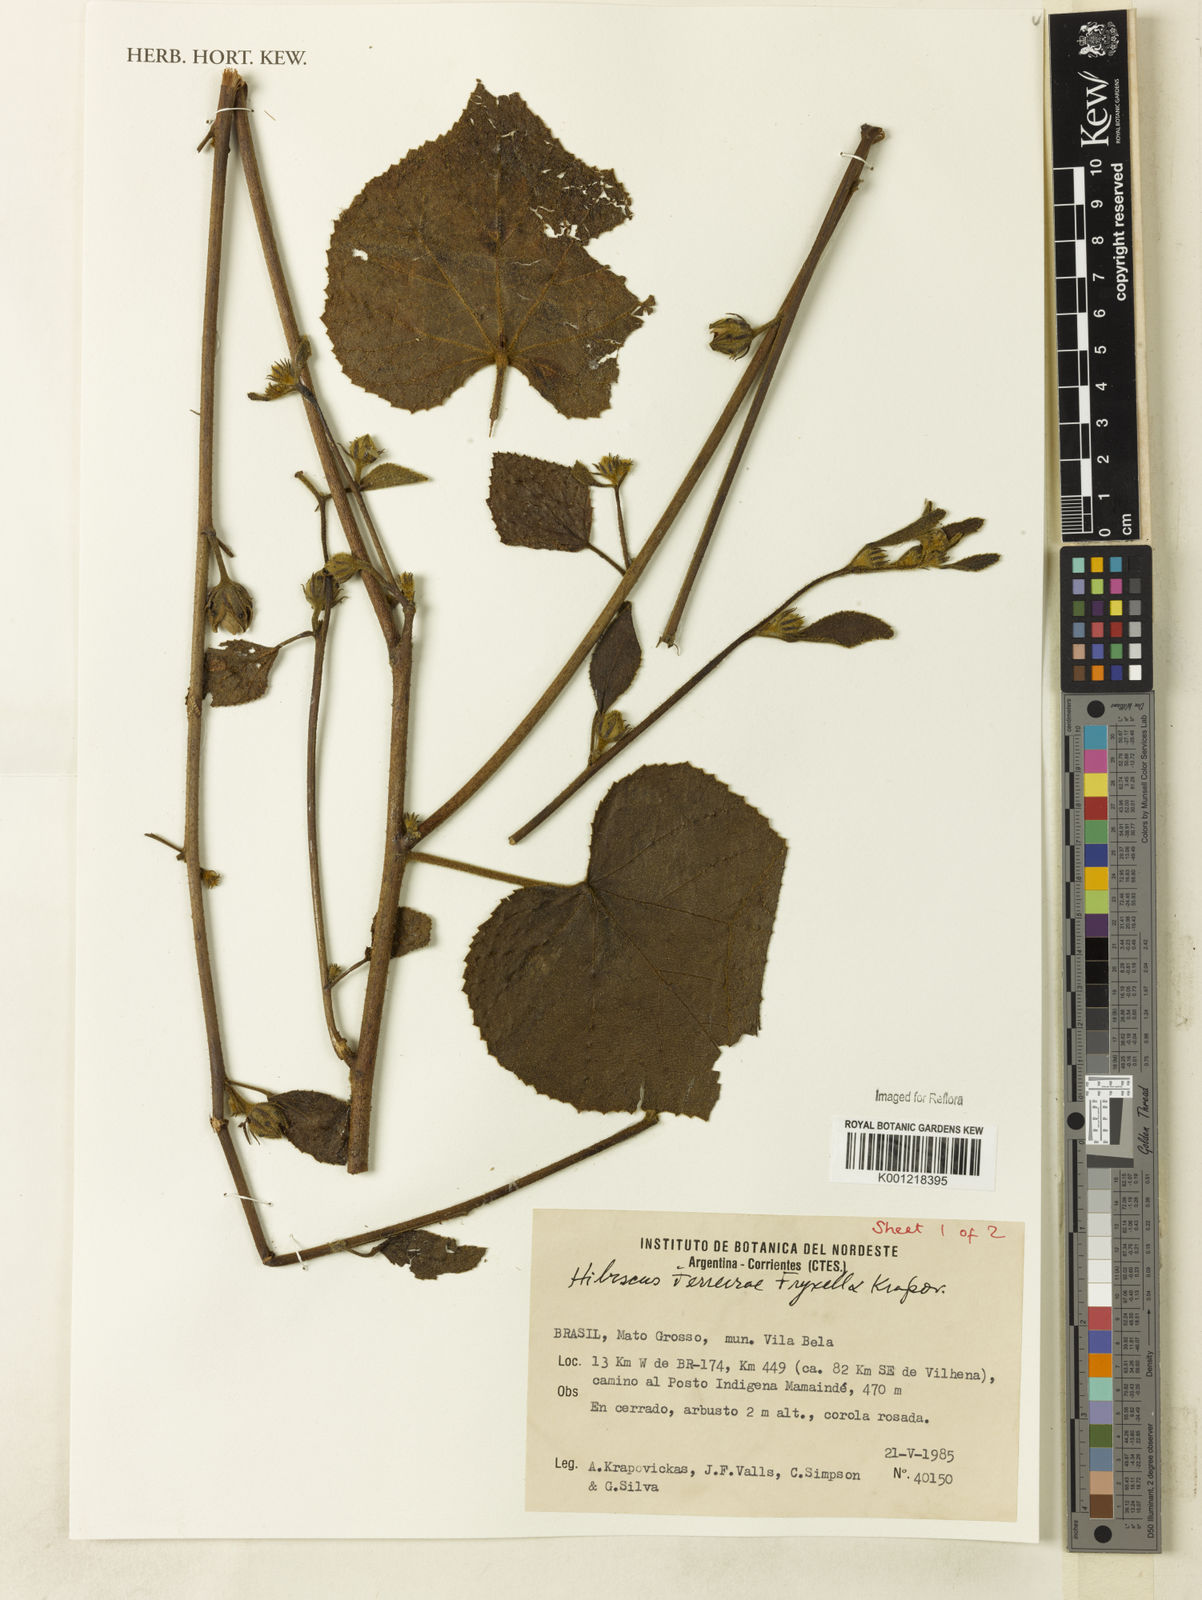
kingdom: Plantae
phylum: Tracheophyta
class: Magnoliopsida
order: Malvales
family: Malvaceae
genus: Hibiscus
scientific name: Hibiscus ferreirae
